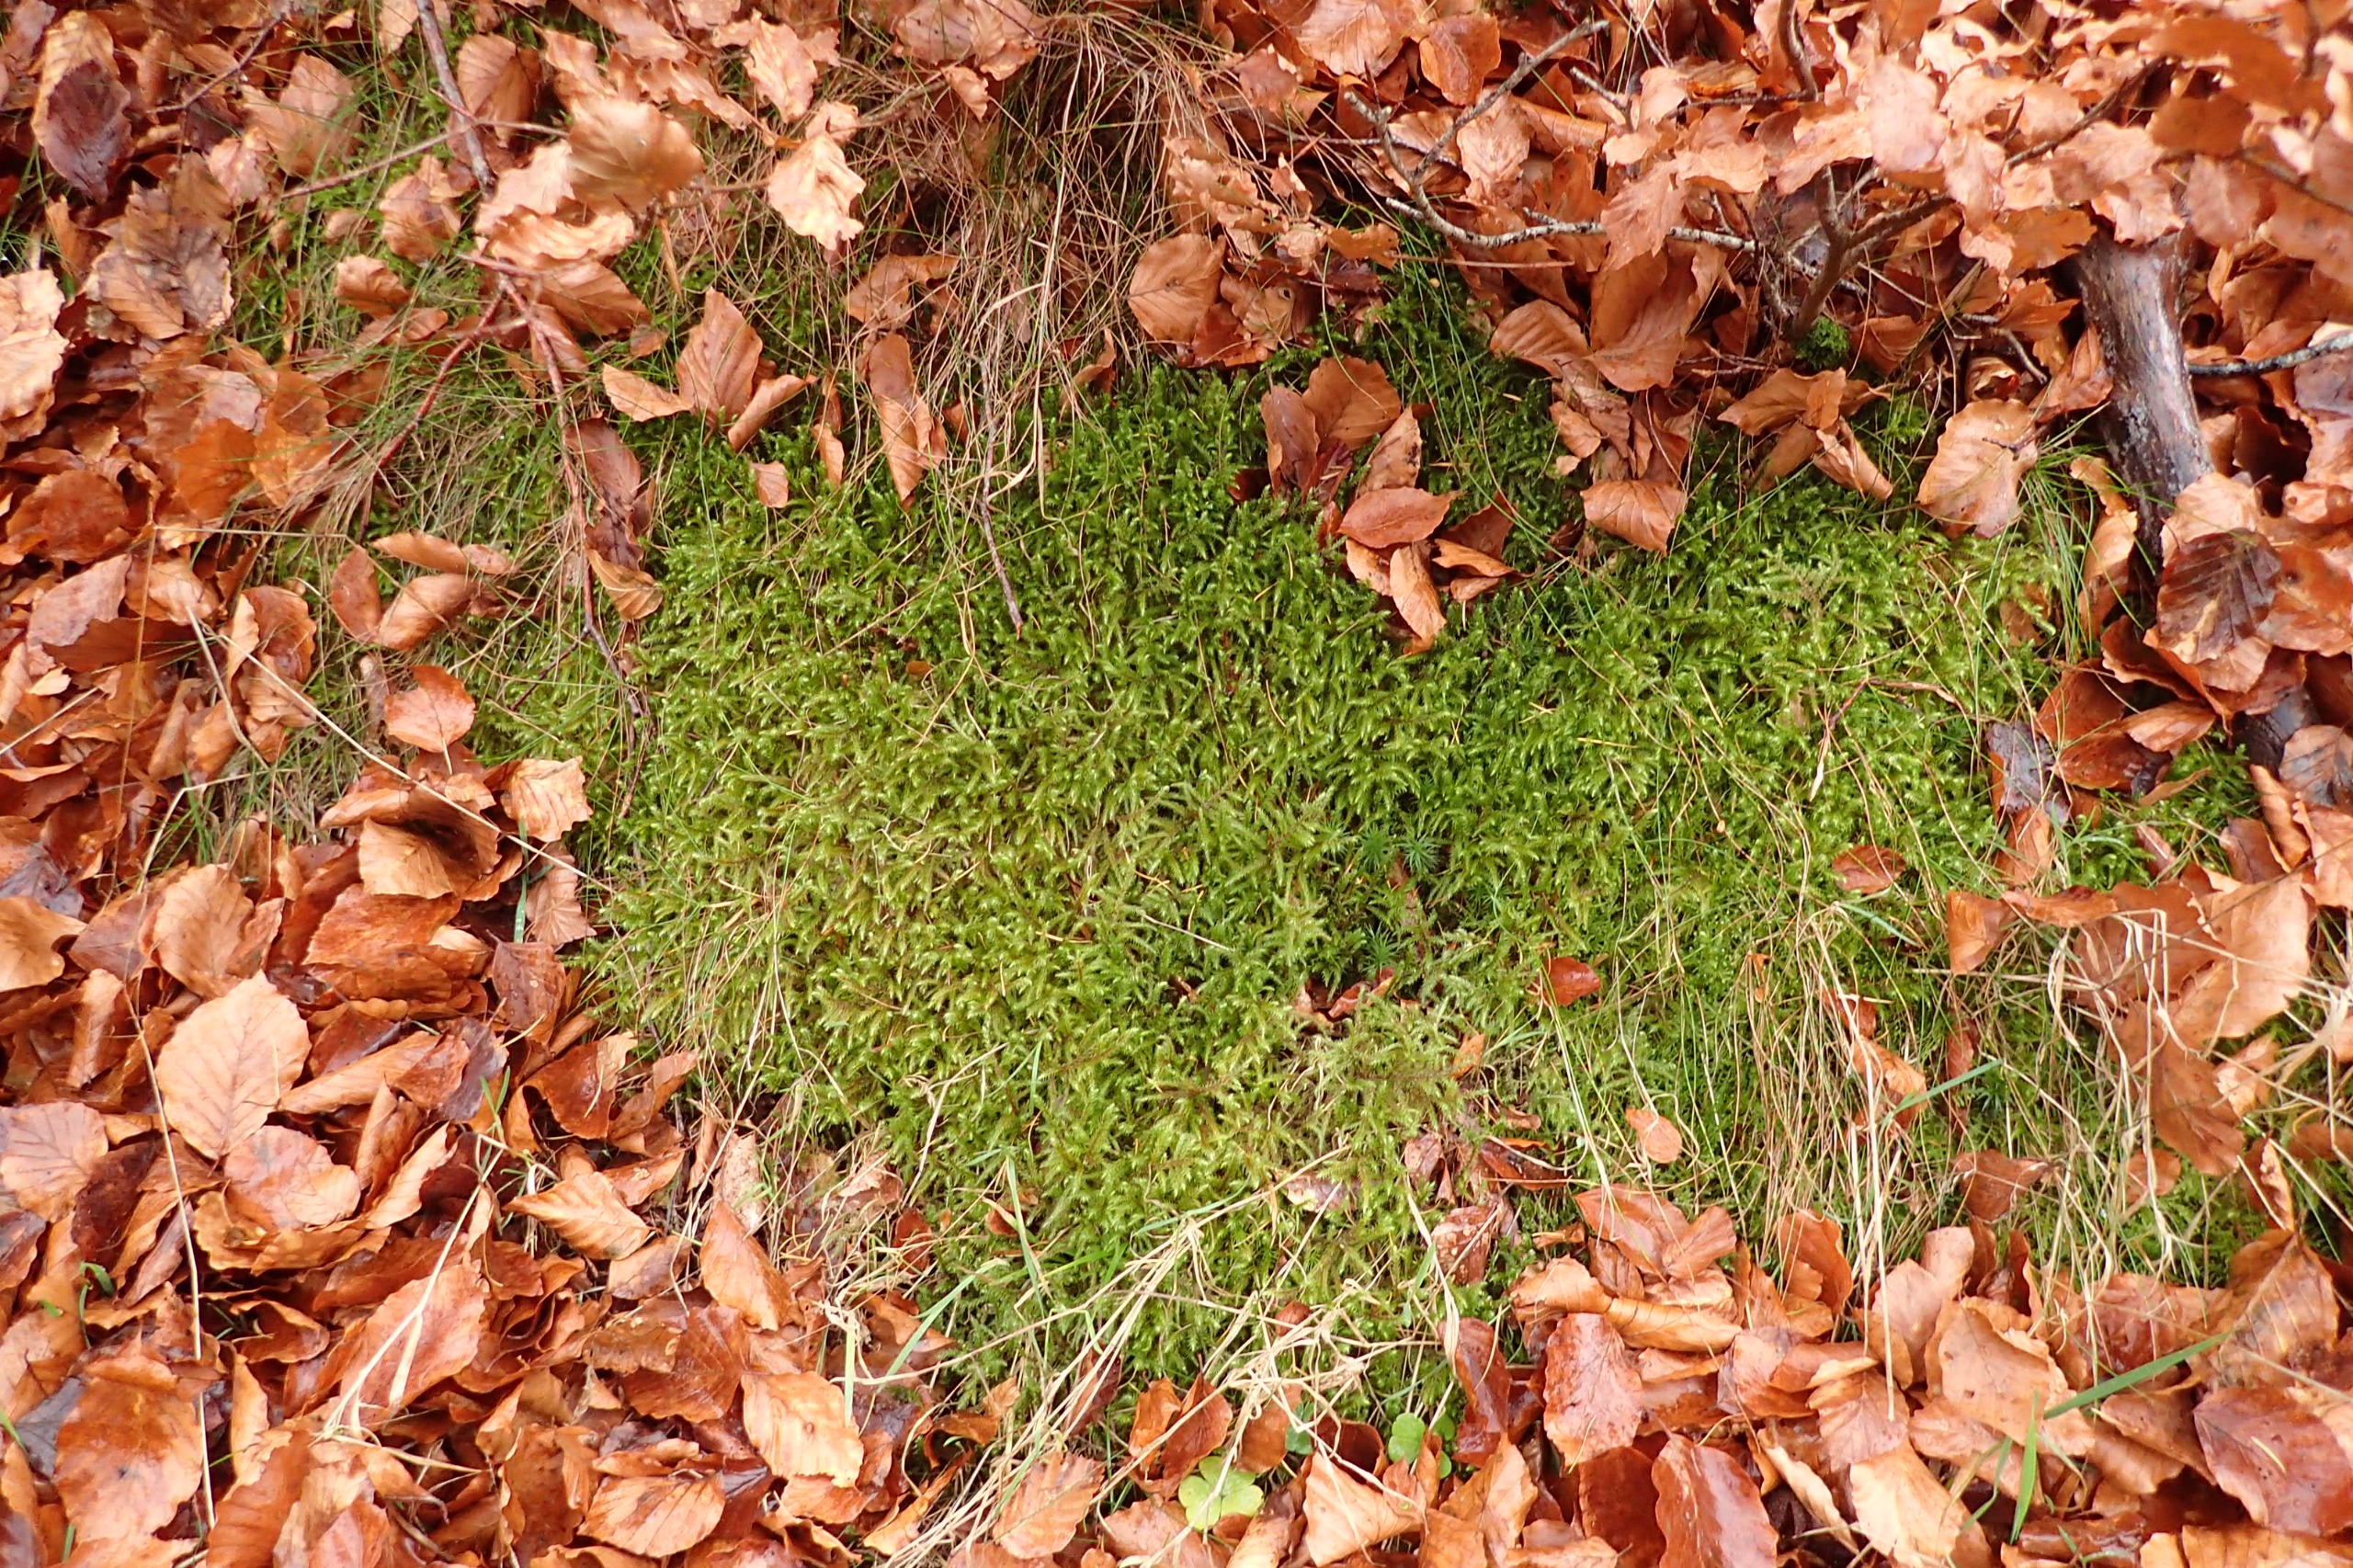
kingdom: Plantae
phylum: Bryophyta
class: Bryopsida
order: Hypnales
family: Hylocomiaceae
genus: Rhytidiadelphus
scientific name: Rhytidiadelphus loreus
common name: Ulvefod-kransemos
